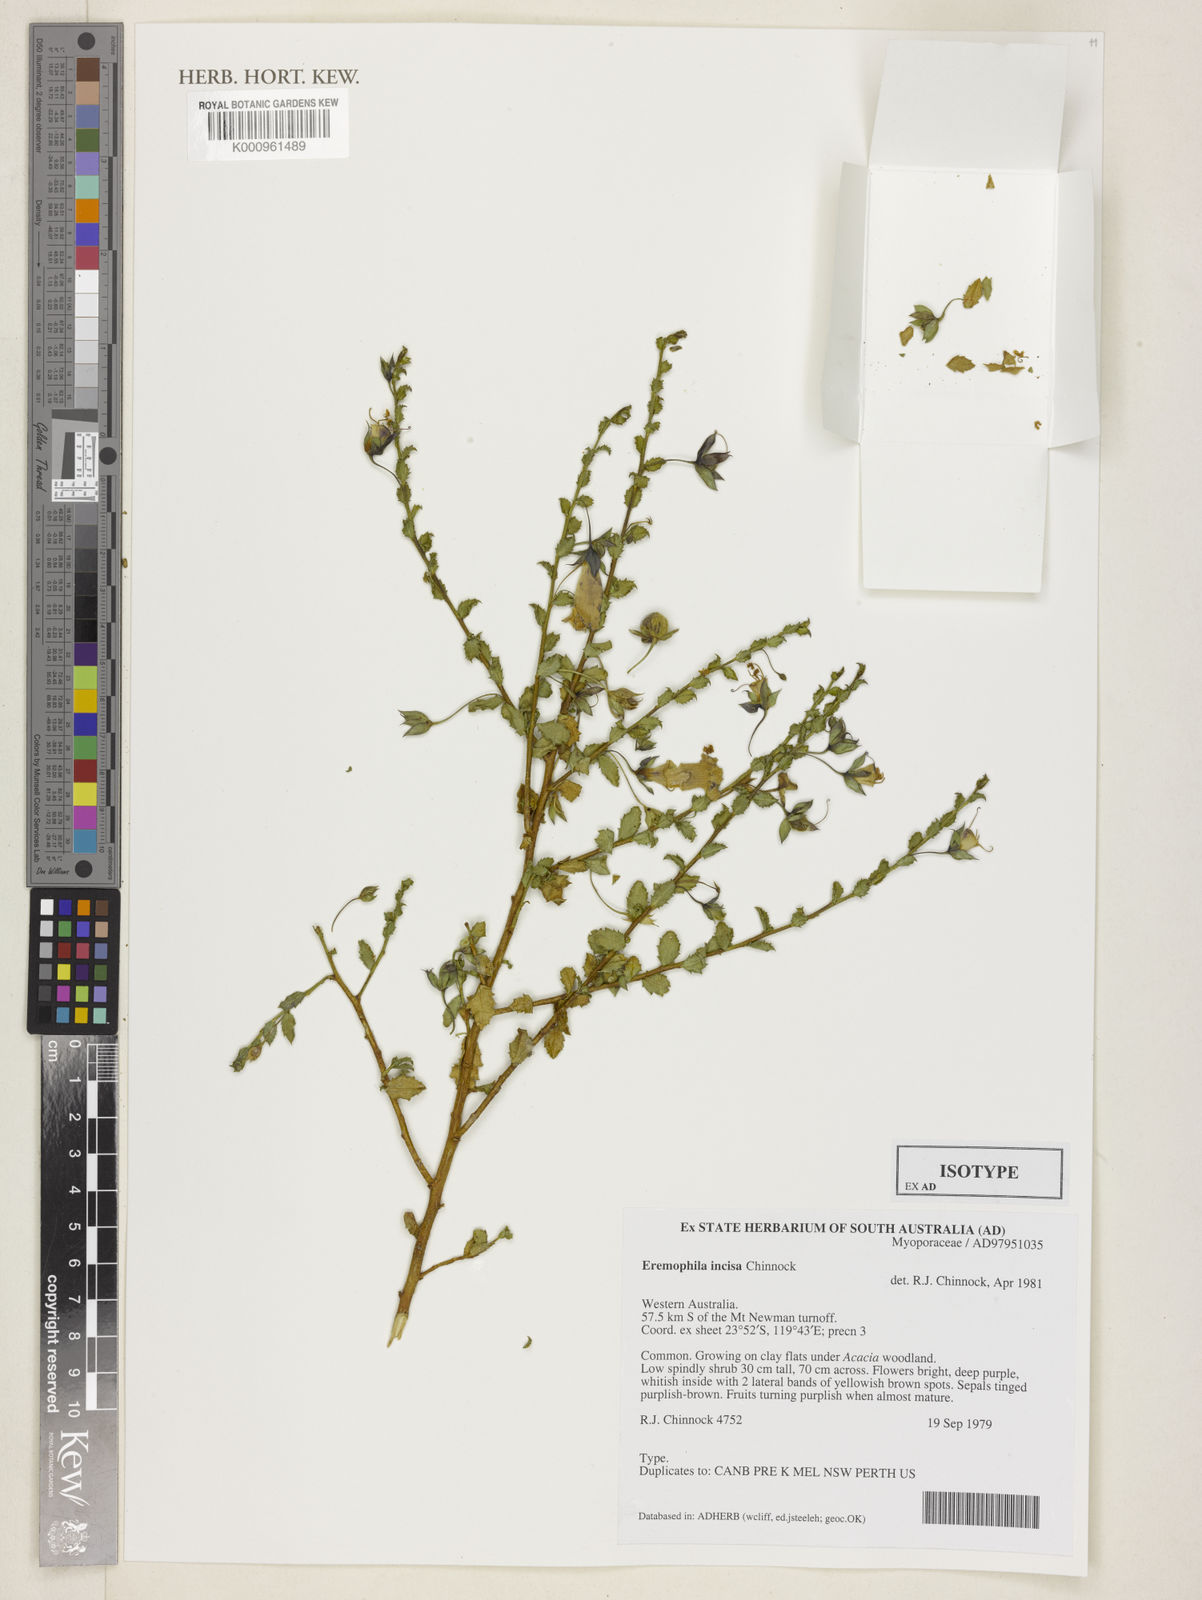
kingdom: Plantae
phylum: Tracheophyta
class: Magnoliopsida
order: Lamiales
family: Scrophulariaceae
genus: Eremophila
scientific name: Eremophila incisa
